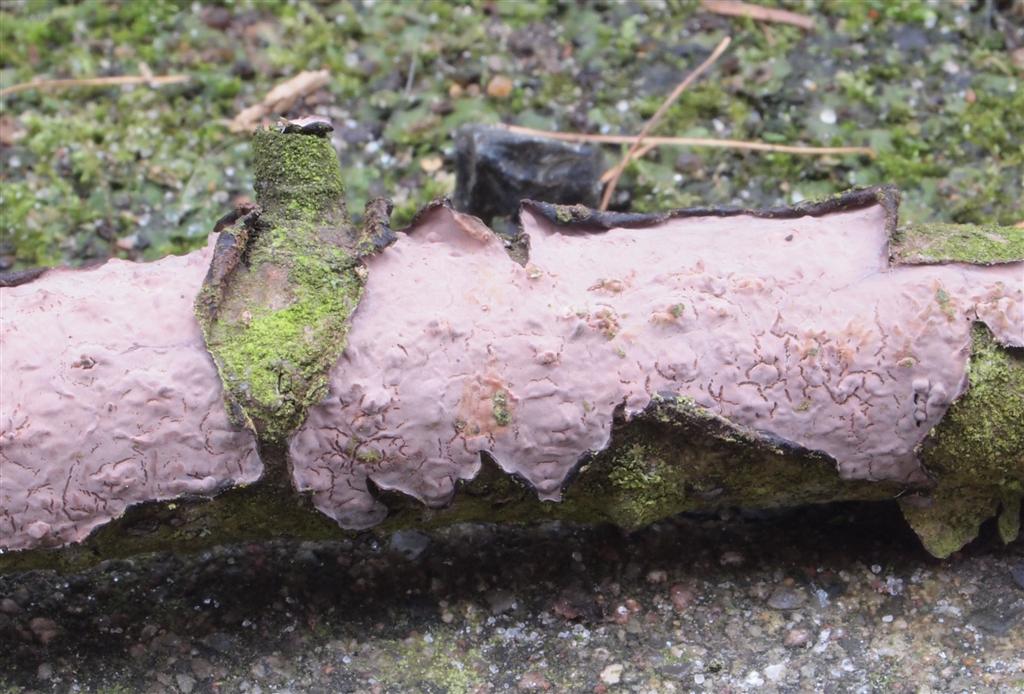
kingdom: Fungi
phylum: Basidiomycota
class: Agaricomycetes
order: Russulales
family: Peniophoraceae
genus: Peniophora
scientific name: Peniophora quercina
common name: ege-voksskind
